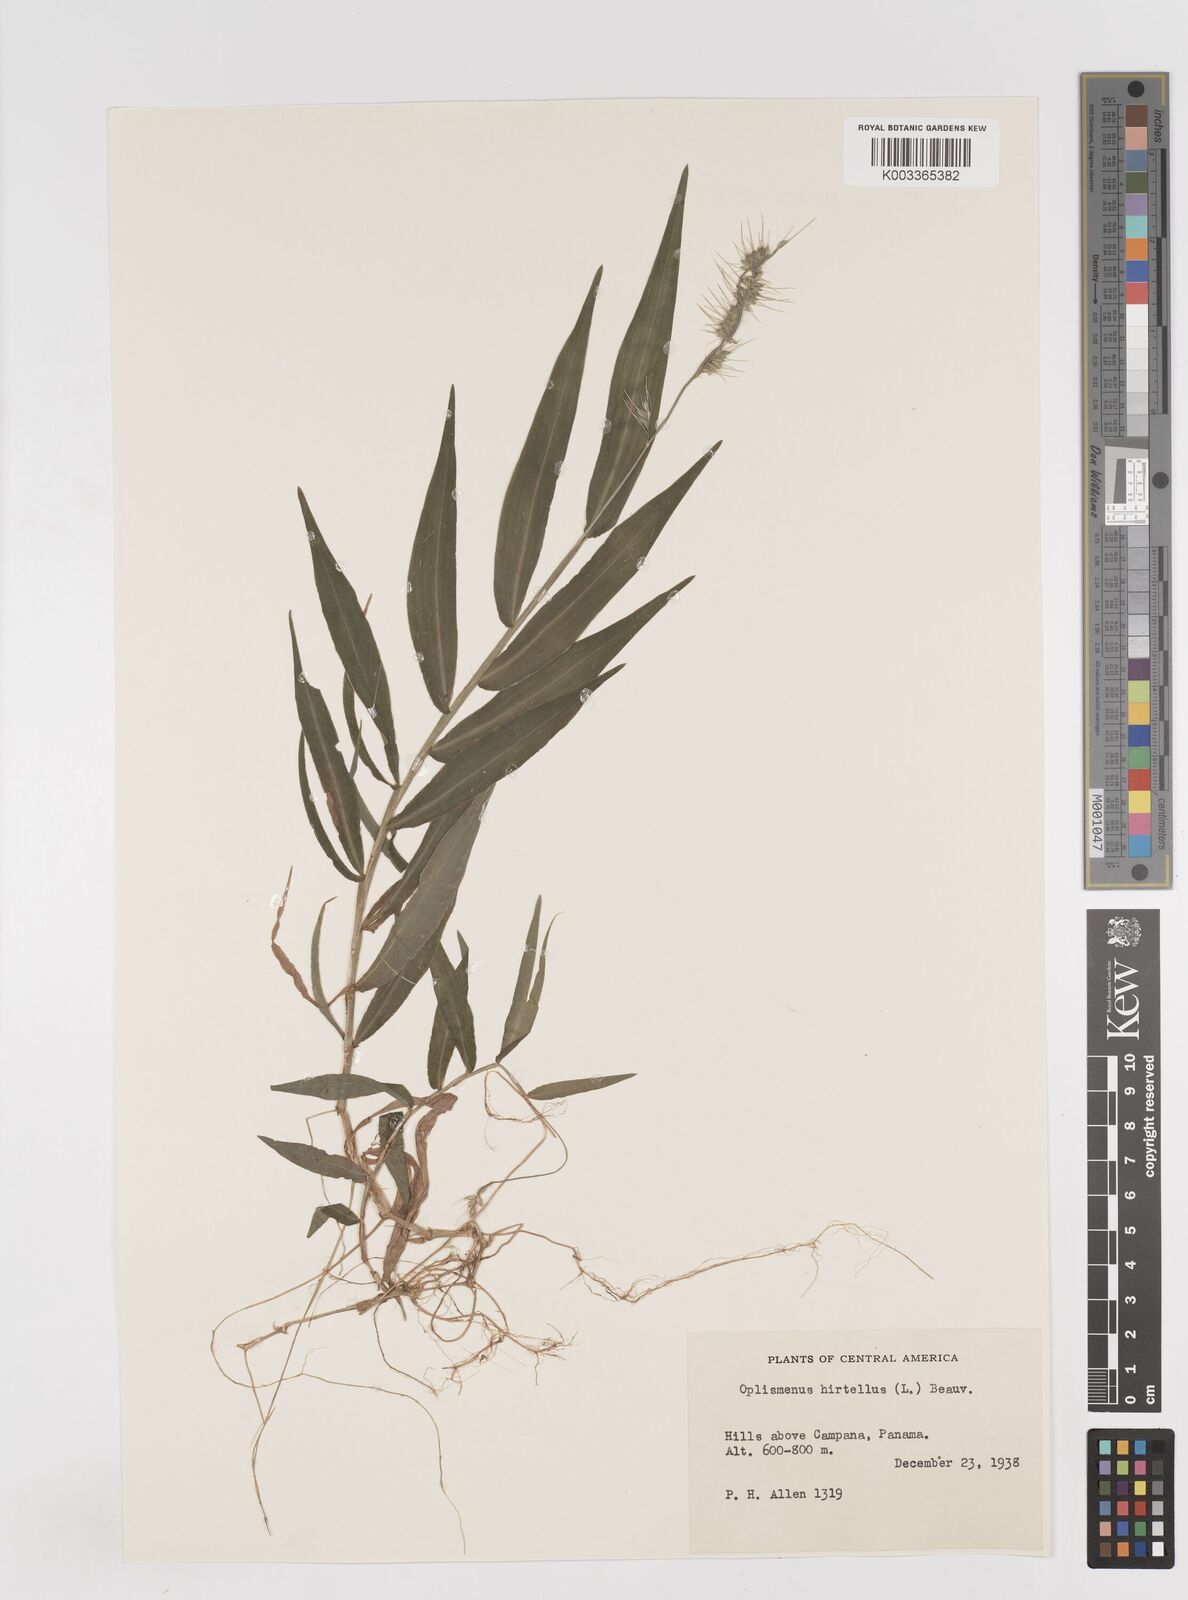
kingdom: Plantae
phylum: Tracheophyta
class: Liliopsida
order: Poales
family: Poaceae
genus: Oplismenus
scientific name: Oplismenus hirtellus
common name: Basketgrass
